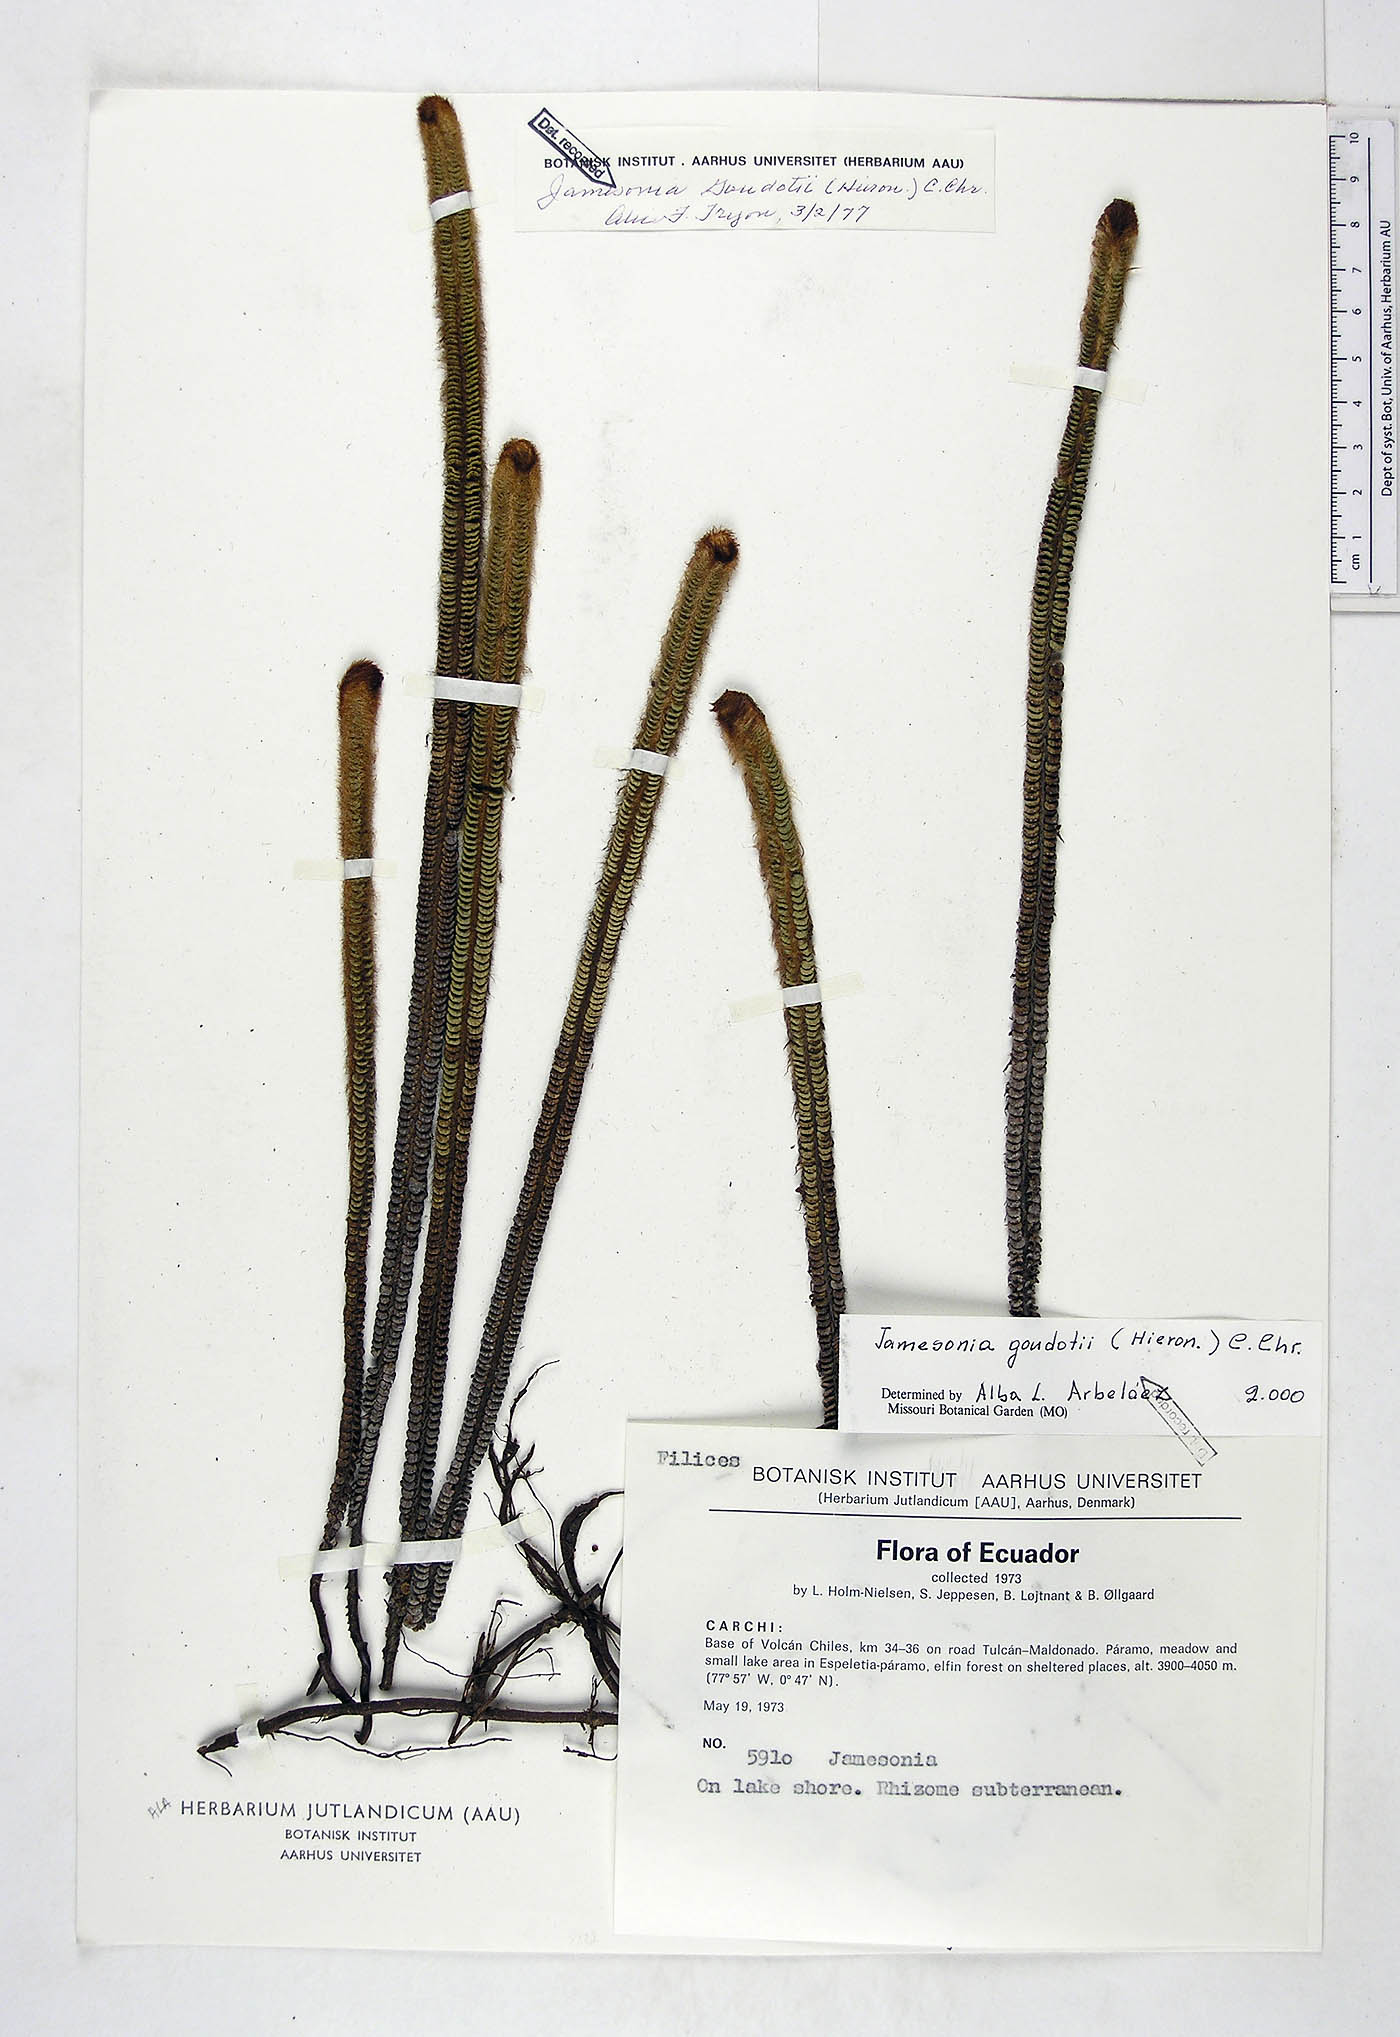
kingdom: Plantae
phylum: Tracheophyta
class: Polypodiopsida
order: Polypodiales
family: Pteridaceae
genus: Jamesonia
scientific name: Jamesonia goudotii
